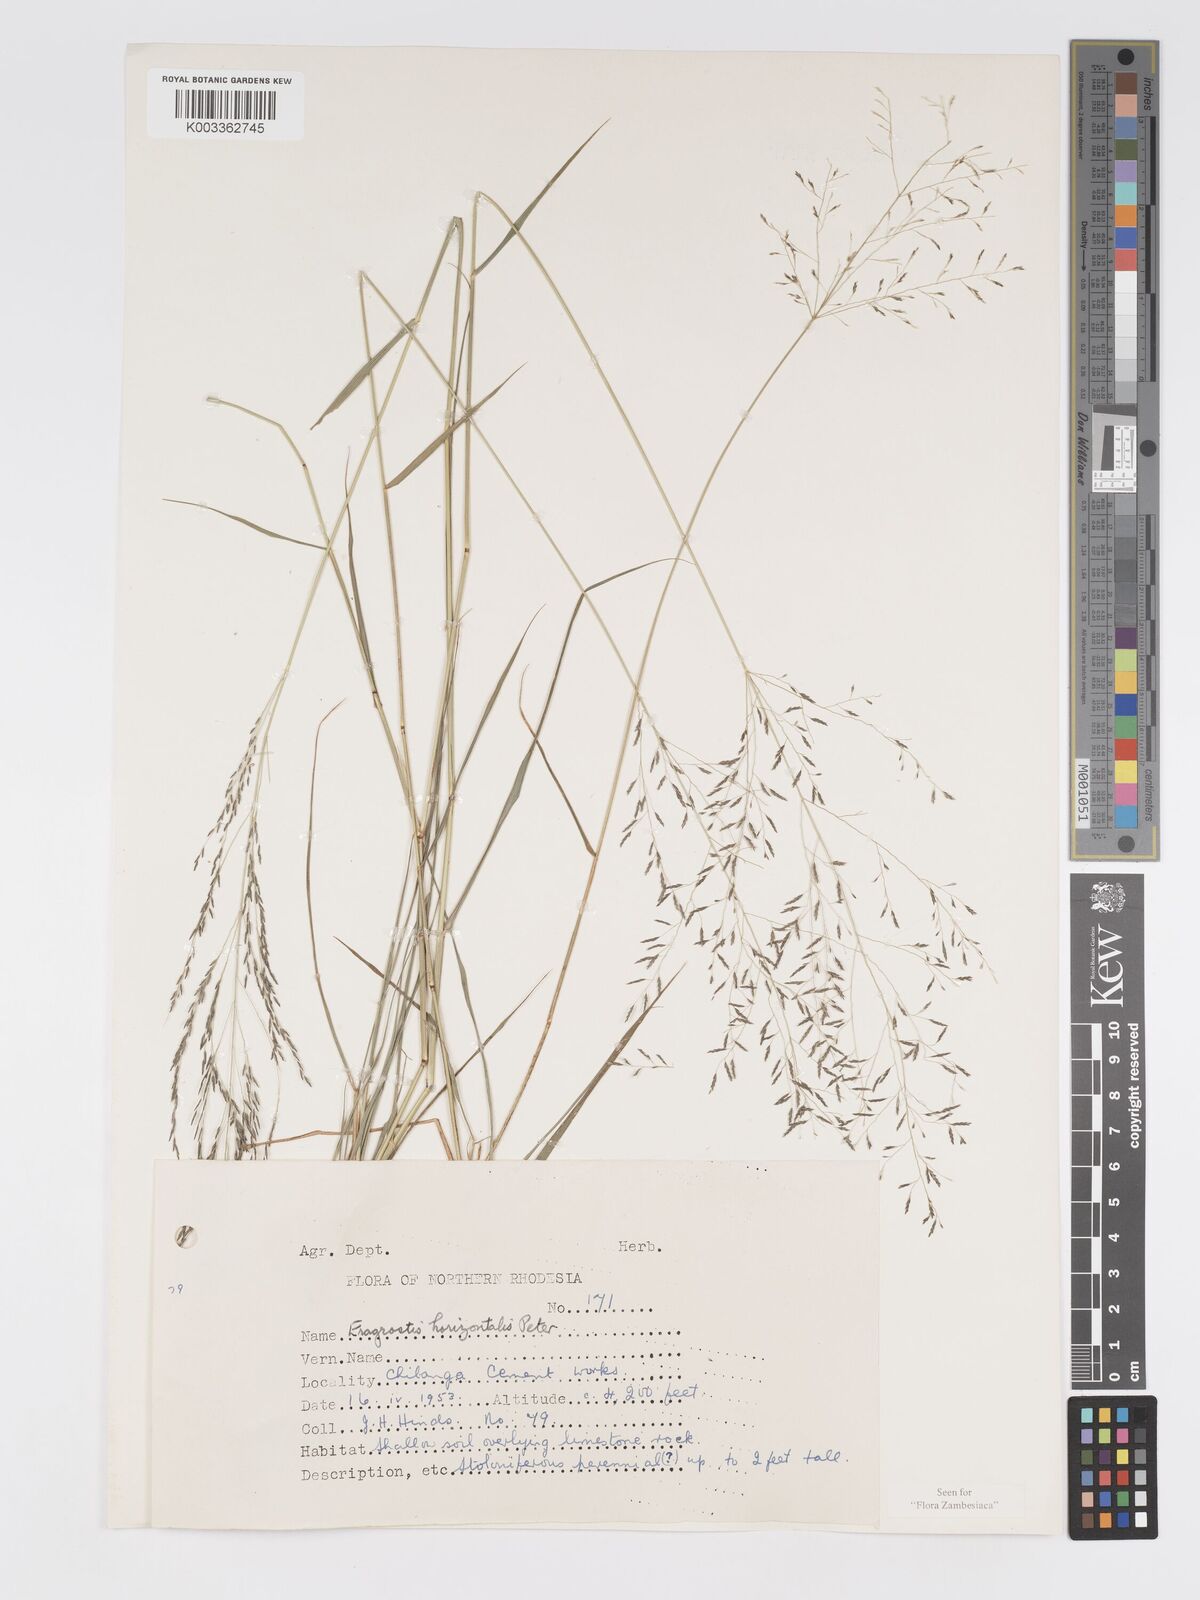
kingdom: Plantae
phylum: Tracheophyta
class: Liliopsida
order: Poales
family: Poaceae
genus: Eragrostis
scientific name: Eragrostis cylindriflora
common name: Cylinderflower lovegrass
